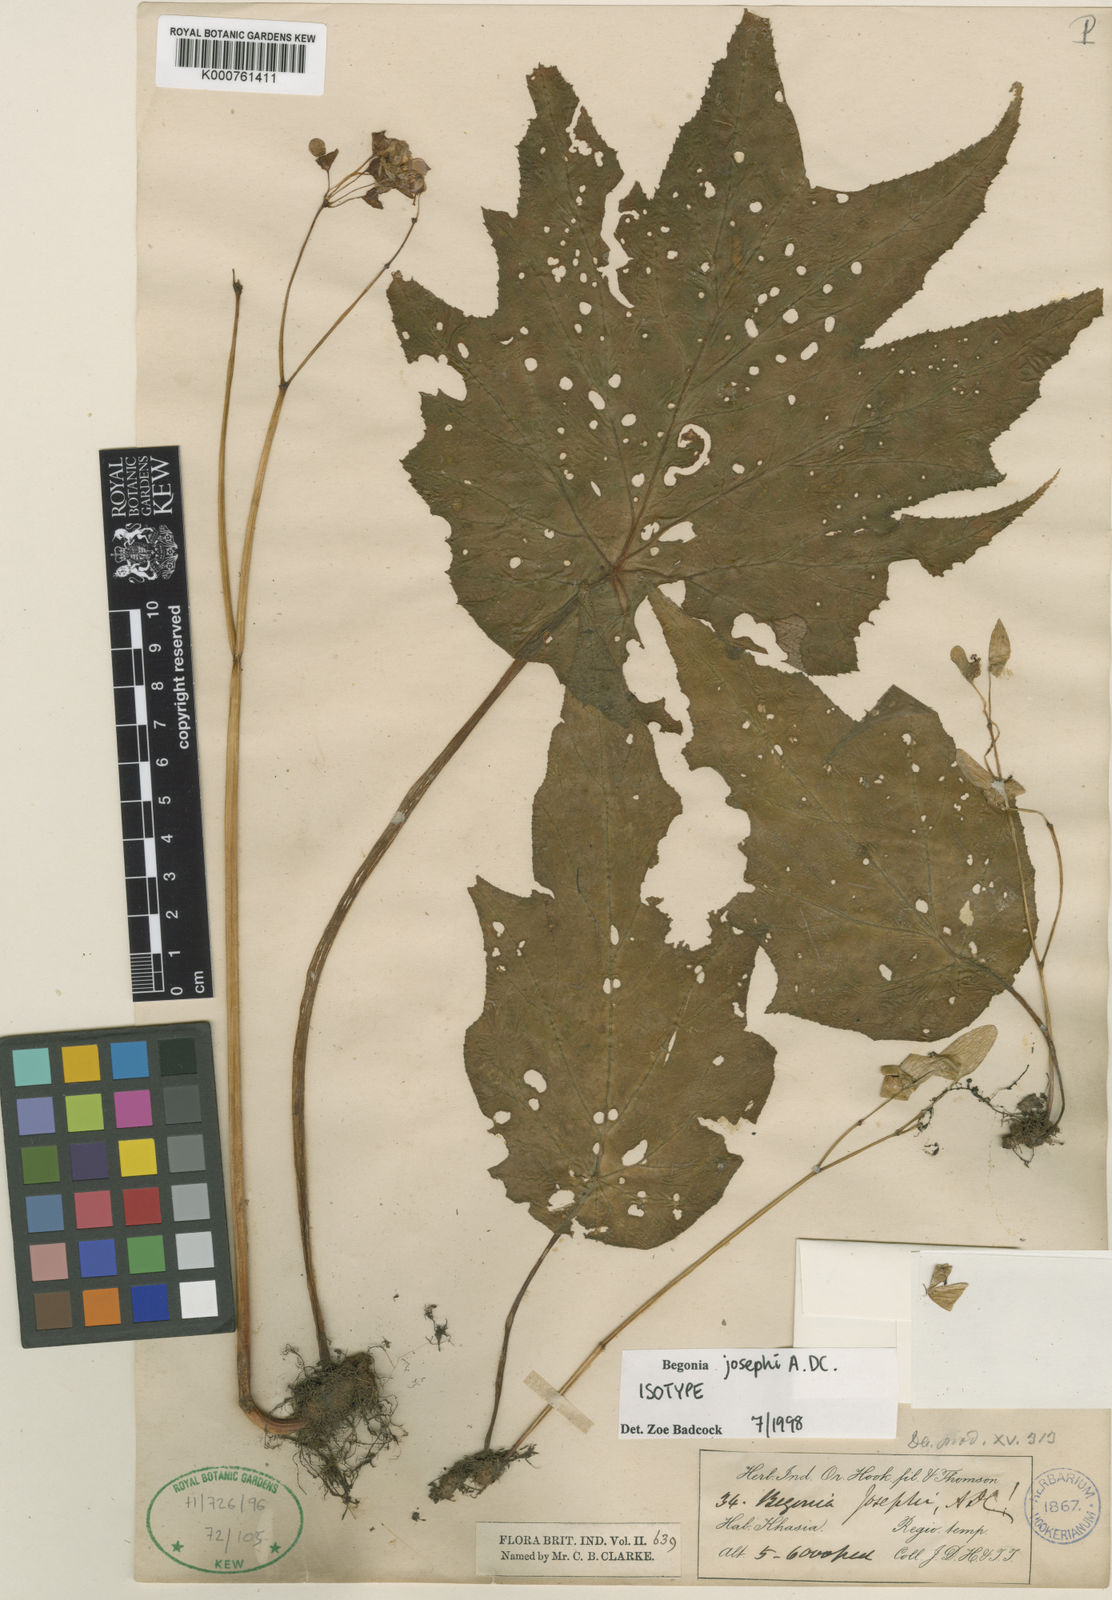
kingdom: Plantae
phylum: Tracheophyta
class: Magnoliopsida
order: Cucurbitales
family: Begoniaceae
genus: Begonia
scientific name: Begonia josephi
